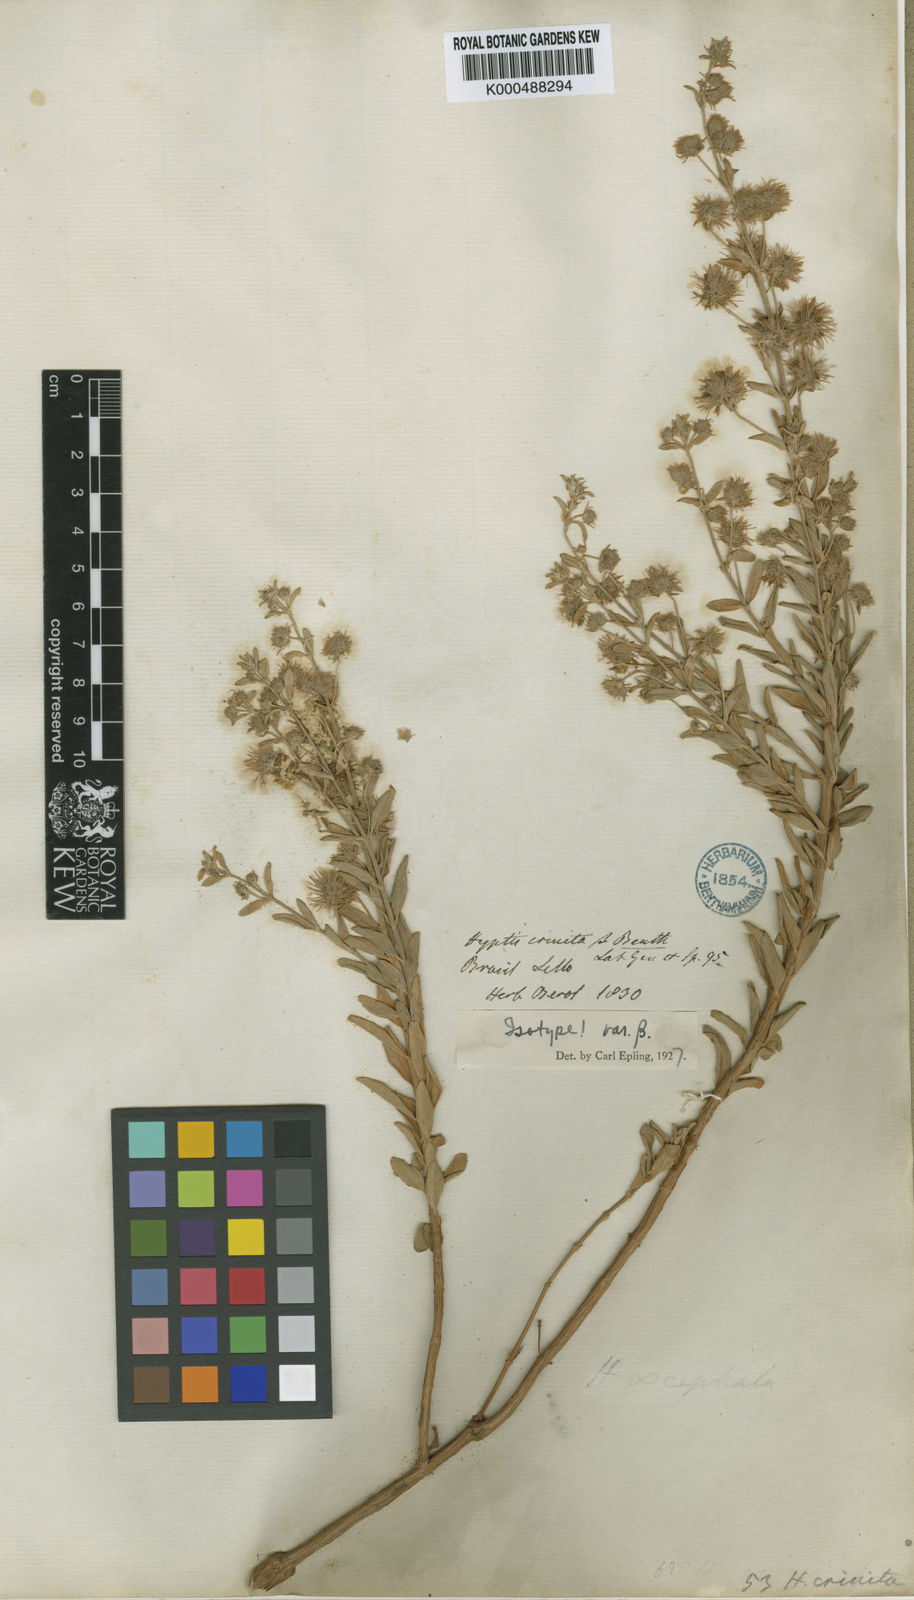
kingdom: Plantae
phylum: Tracheophyta
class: Magnoliopsida
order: Lamiales
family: Lamiaceae
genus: Medusantha
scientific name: Medusantha crinita
